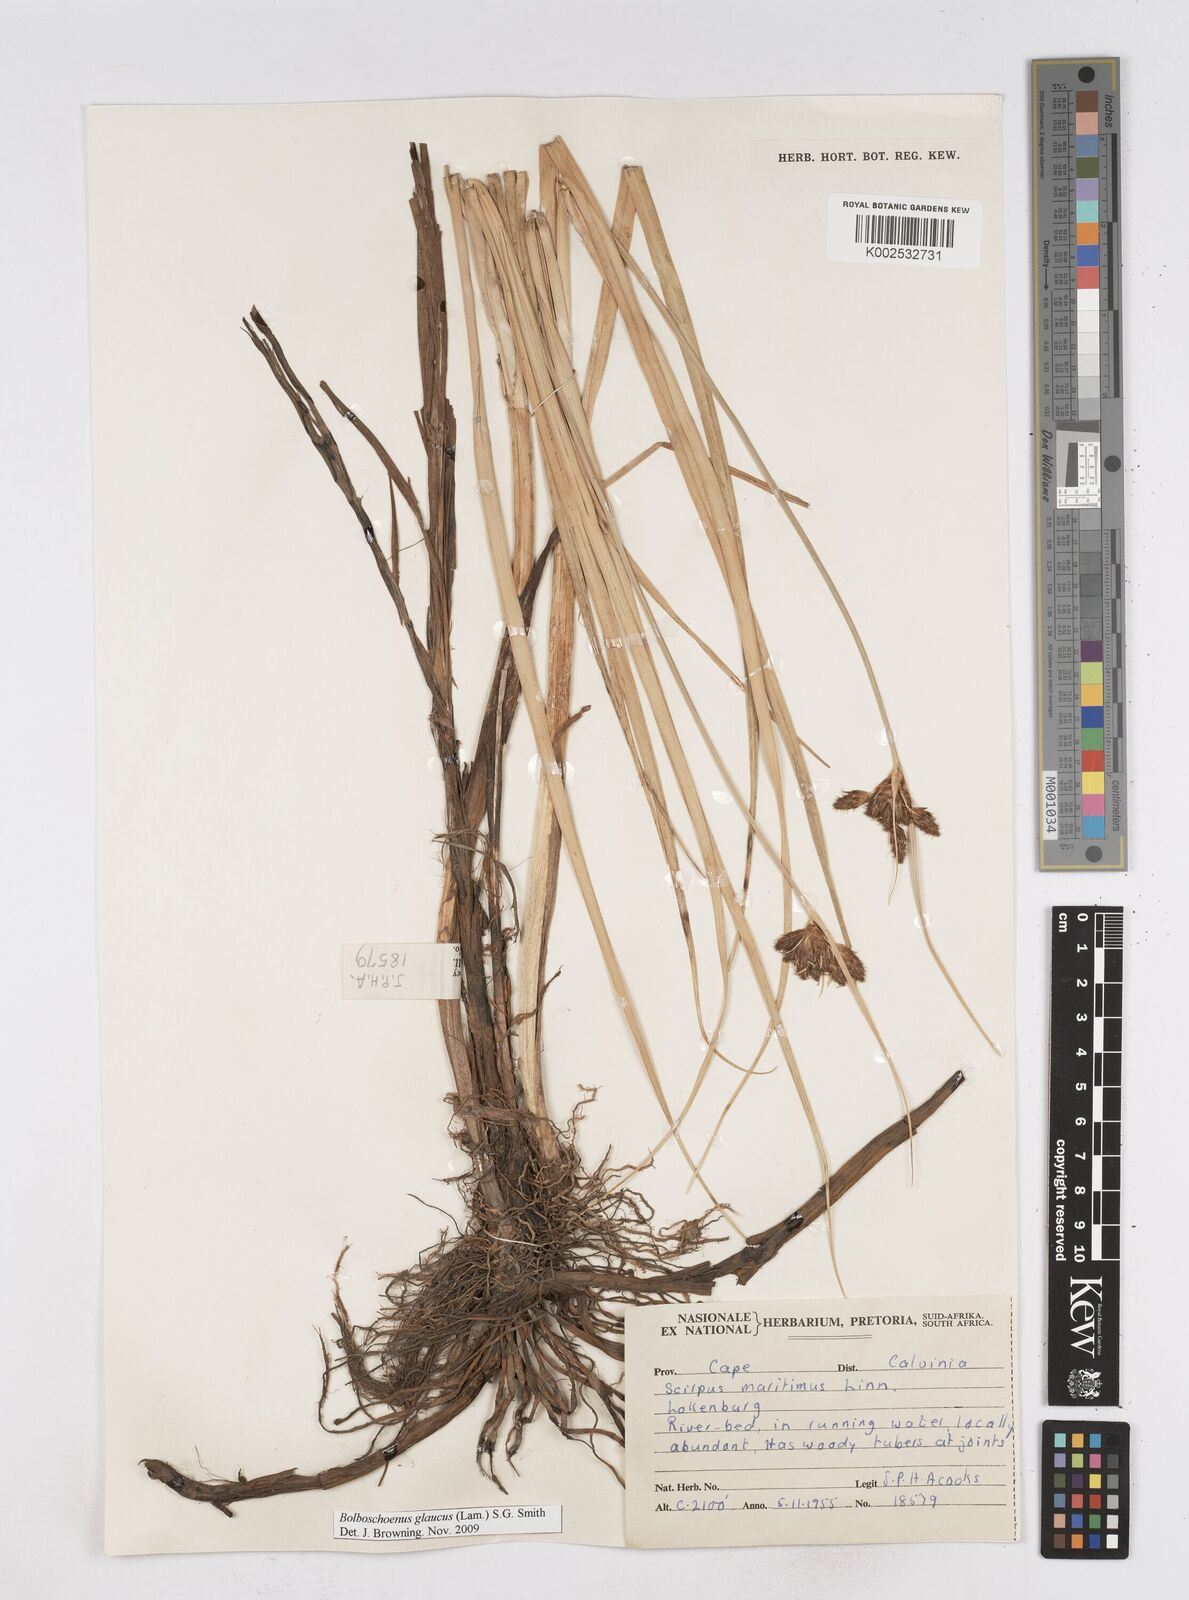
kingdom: Plantae
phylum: Tracheophyta
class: Liliopsida
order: Poales
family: Cyperaceae
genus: Bolboschoenus
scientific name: Bolboschoenus maritimus
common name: Sea club-rush
